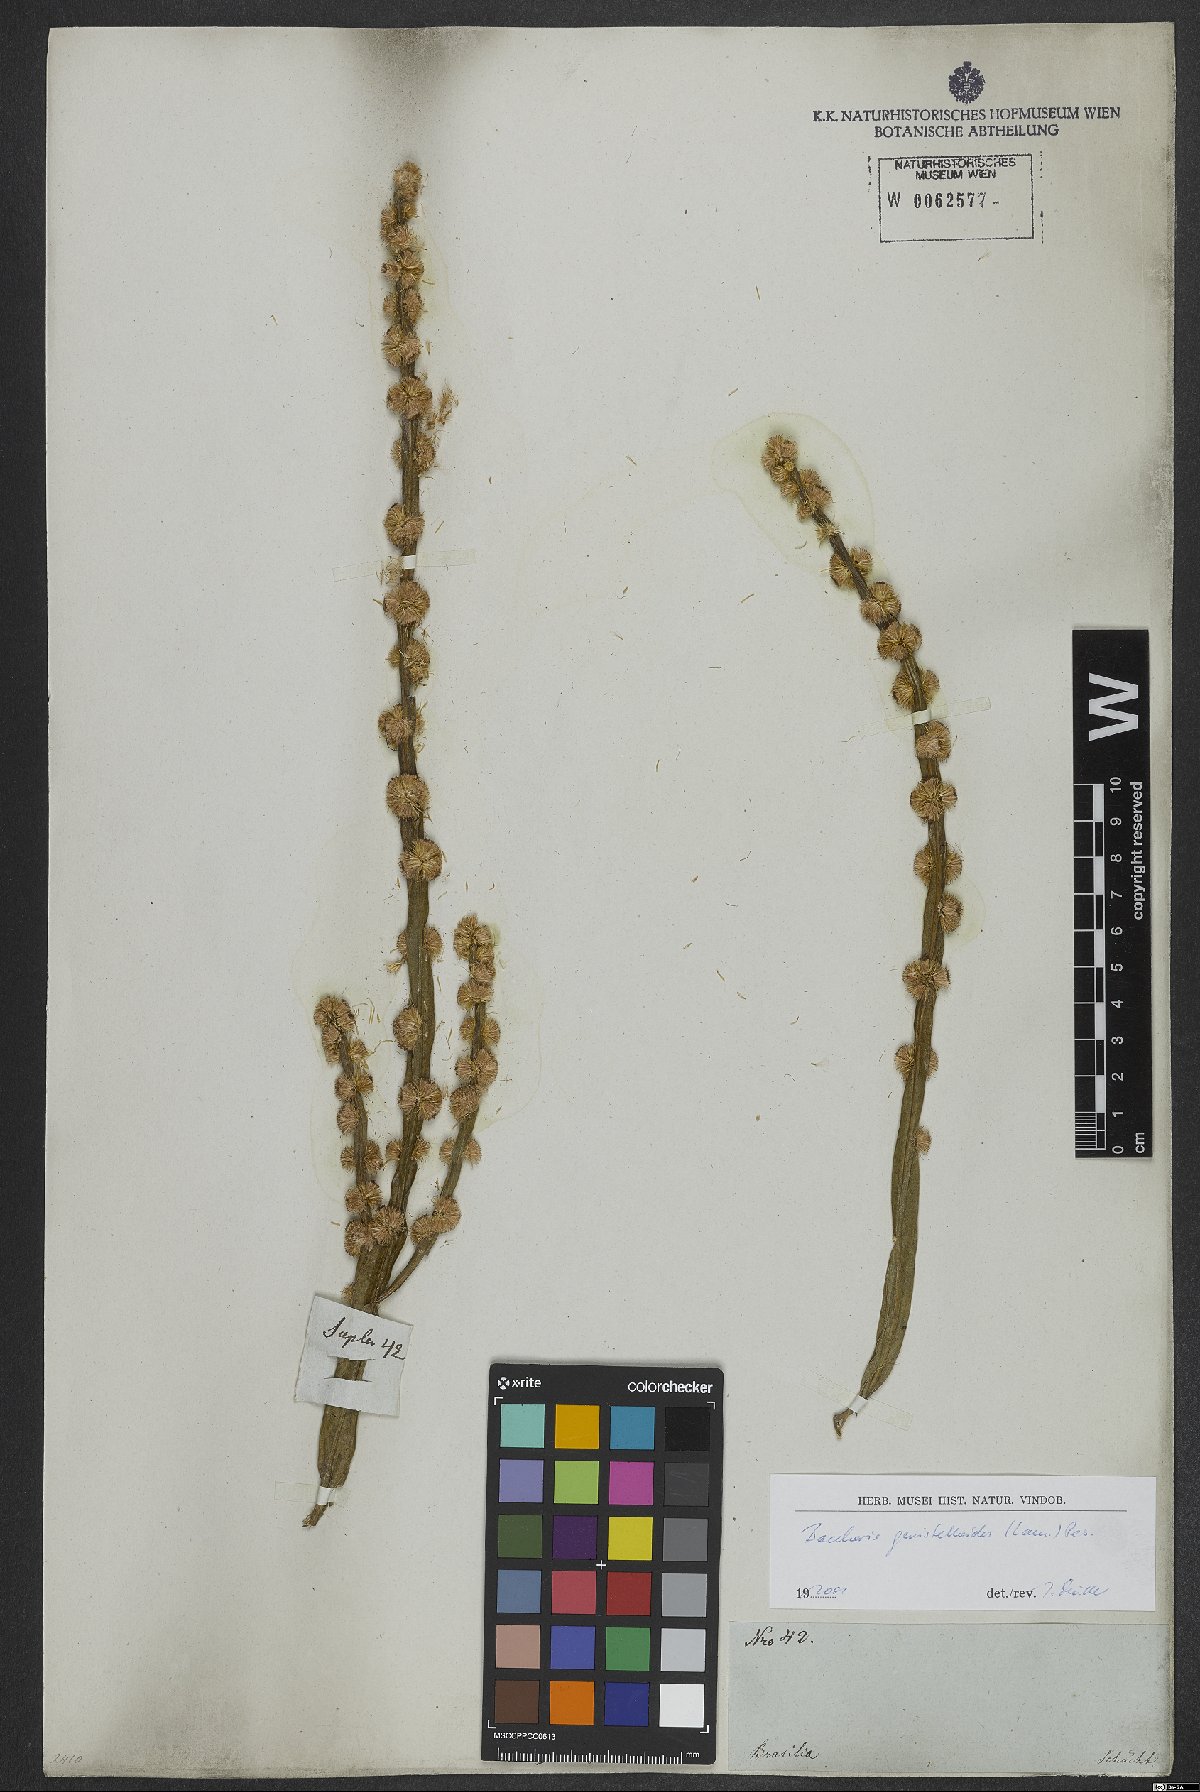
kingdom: Plantae
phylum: Tracheophyta
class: Magnoliopsida
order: Asterales
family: Asteraceae
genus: Baccharis
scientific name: Baccharis genistelloides
